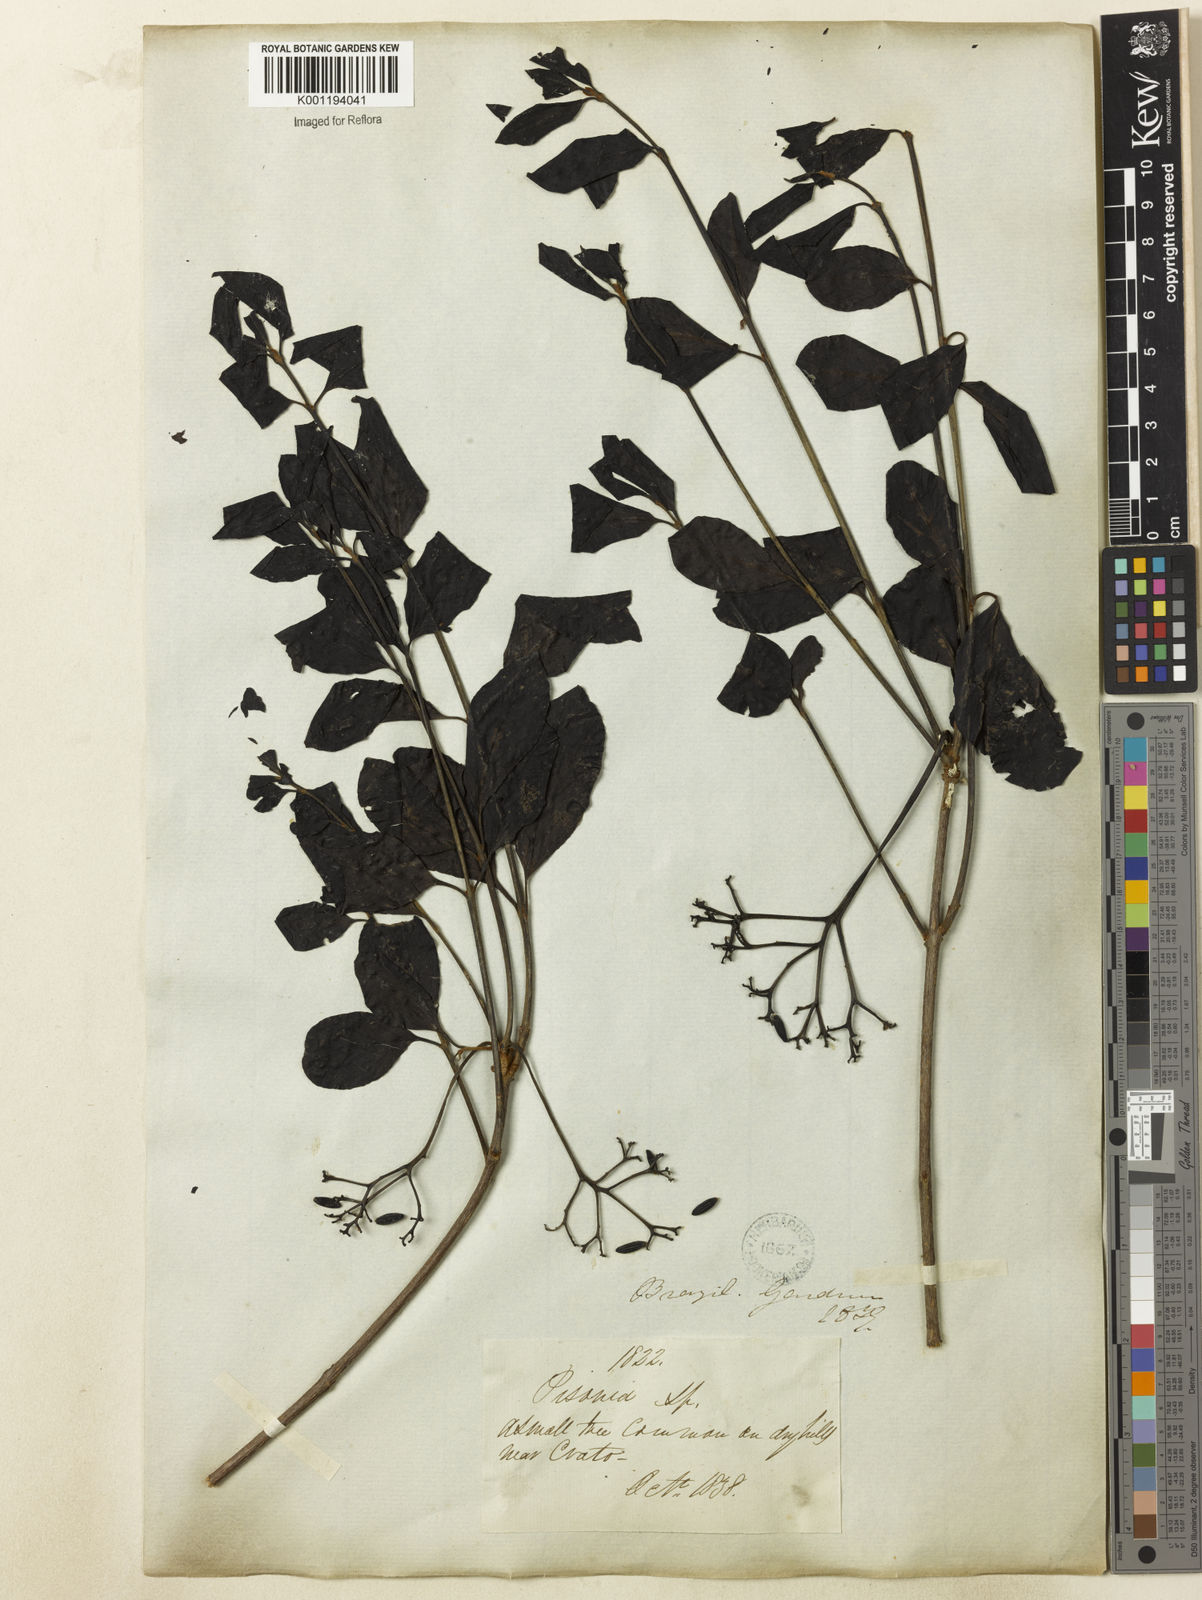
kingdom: Plantae
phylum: Tracheophyta
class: Magnoliopsida
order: Caryophyllales
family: Nyctaginaceae
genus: Guapira
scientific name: Guapira
